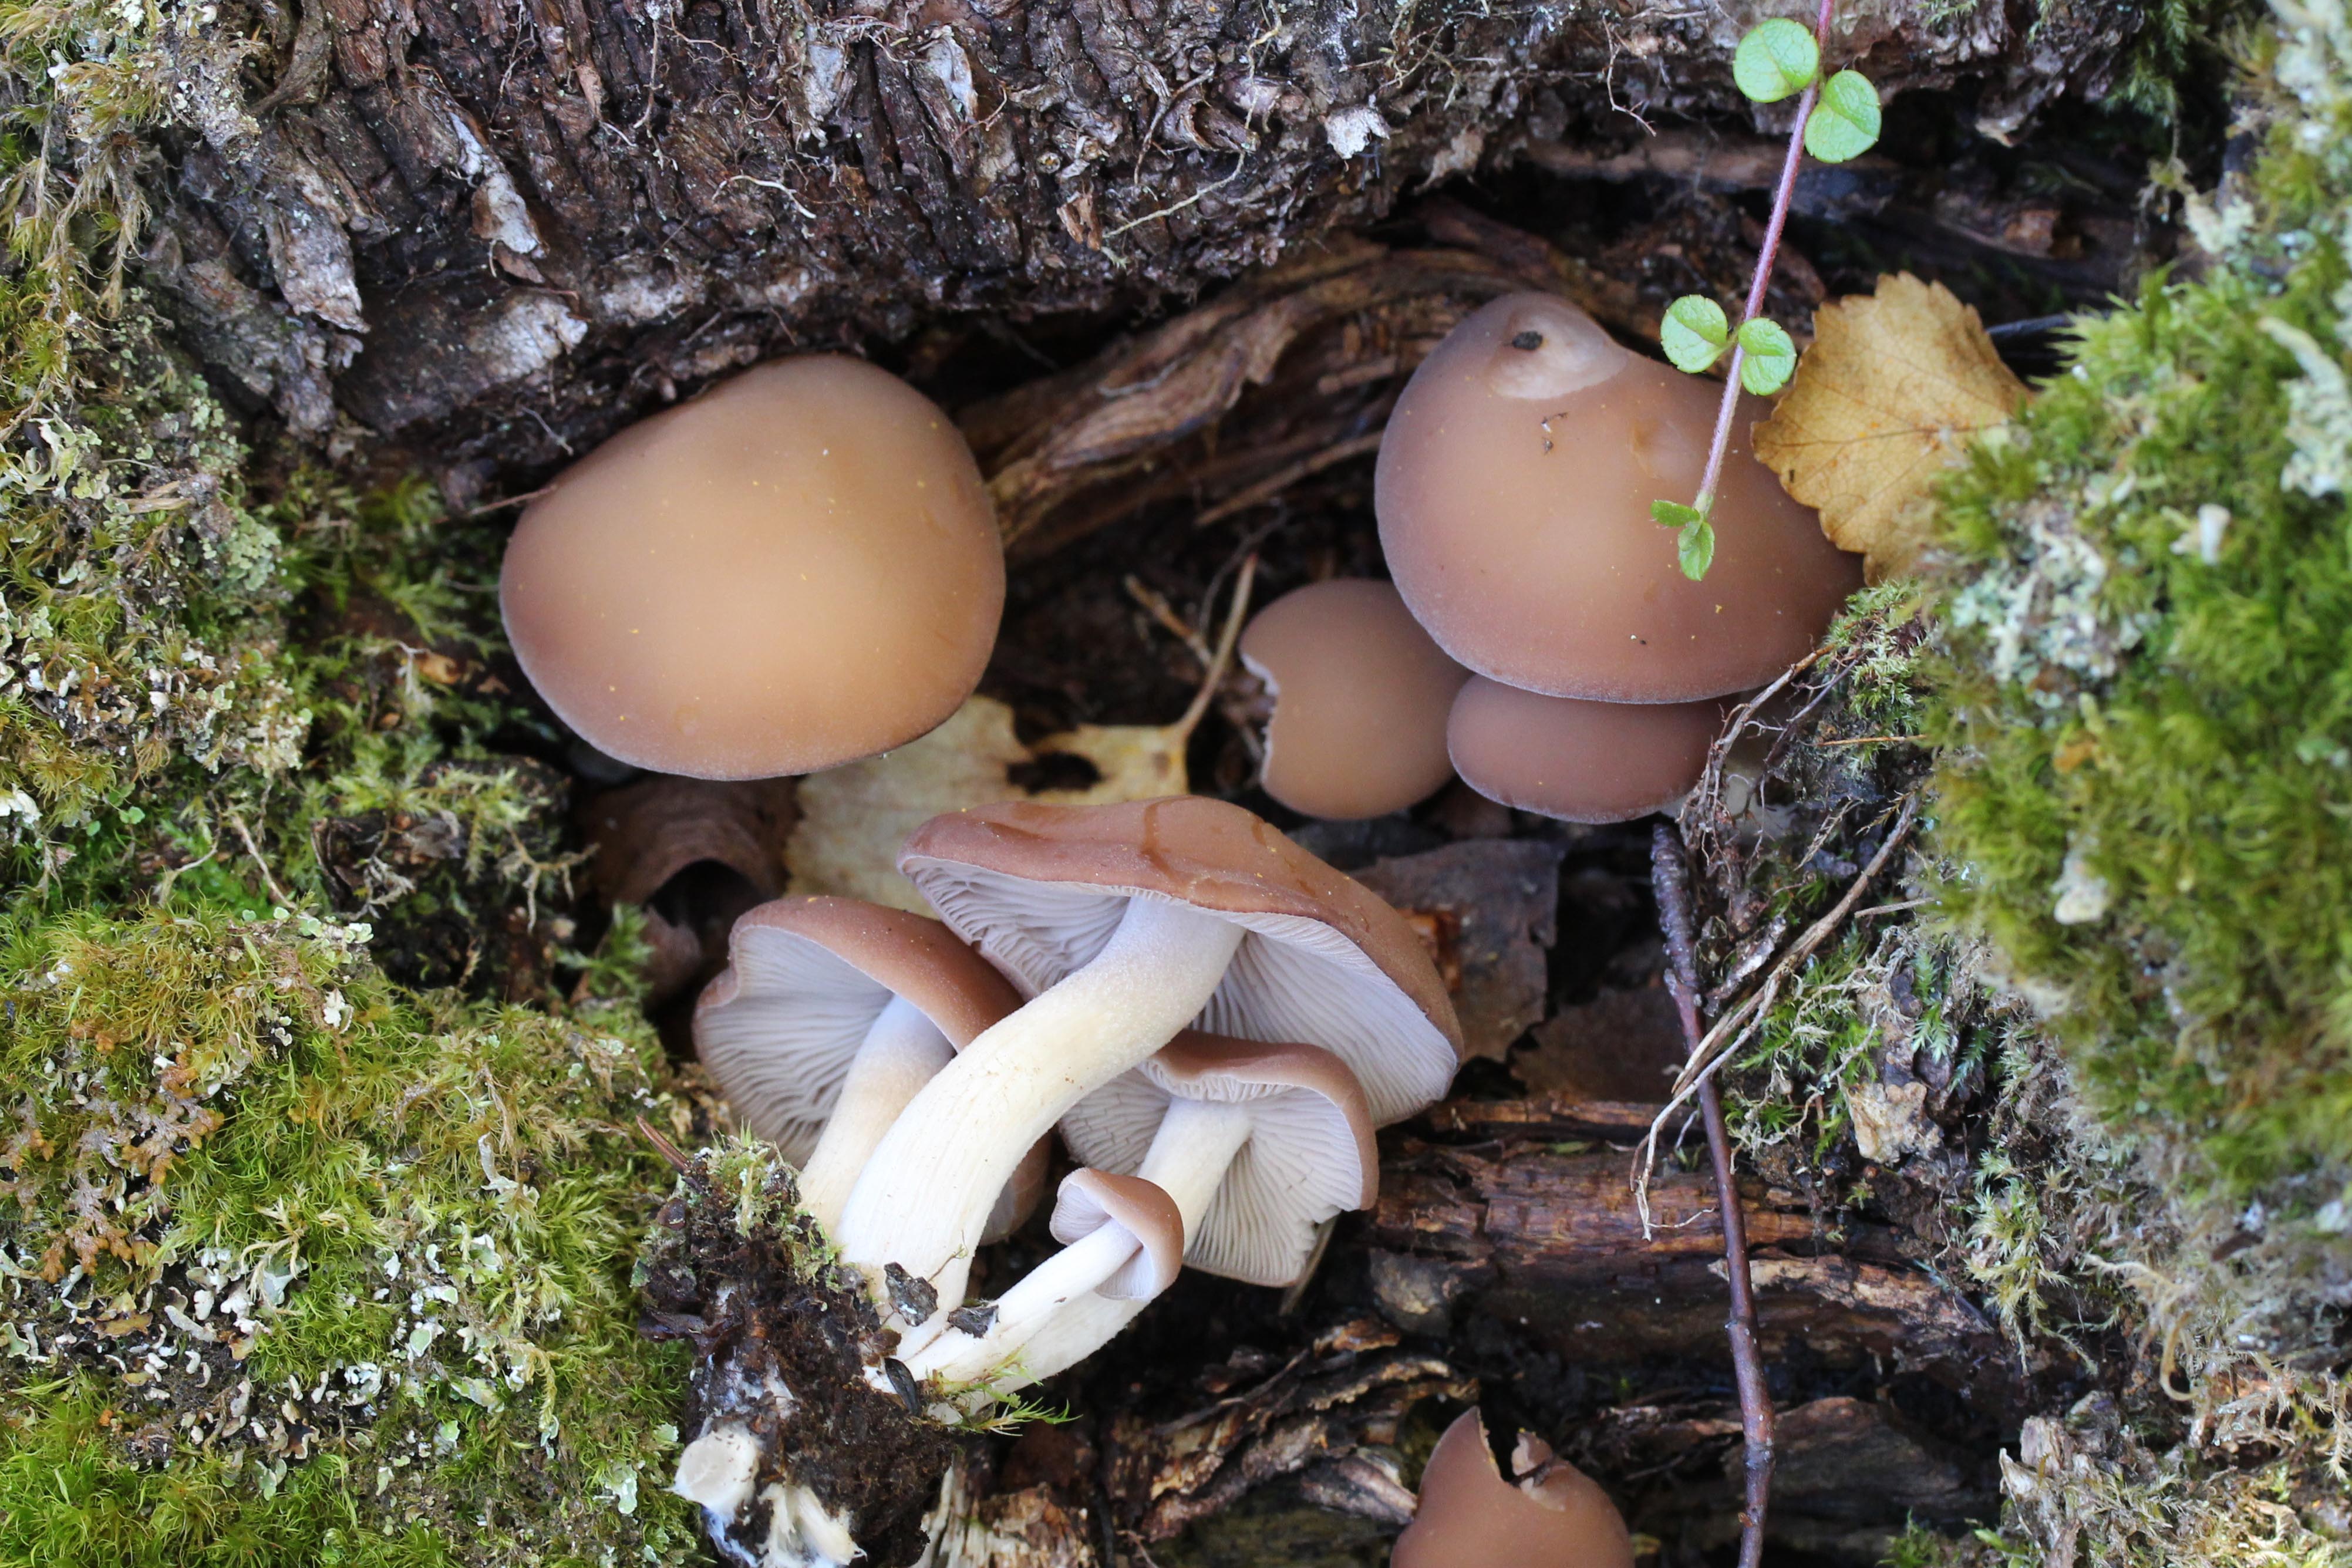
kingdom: Fungi
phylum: Basidiomycota
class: Agaricomycetes
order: Agaricales
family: Psathyrellaceae
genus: Homophron
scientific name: Homophron spadiceum
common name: Chestnut brittlestem
